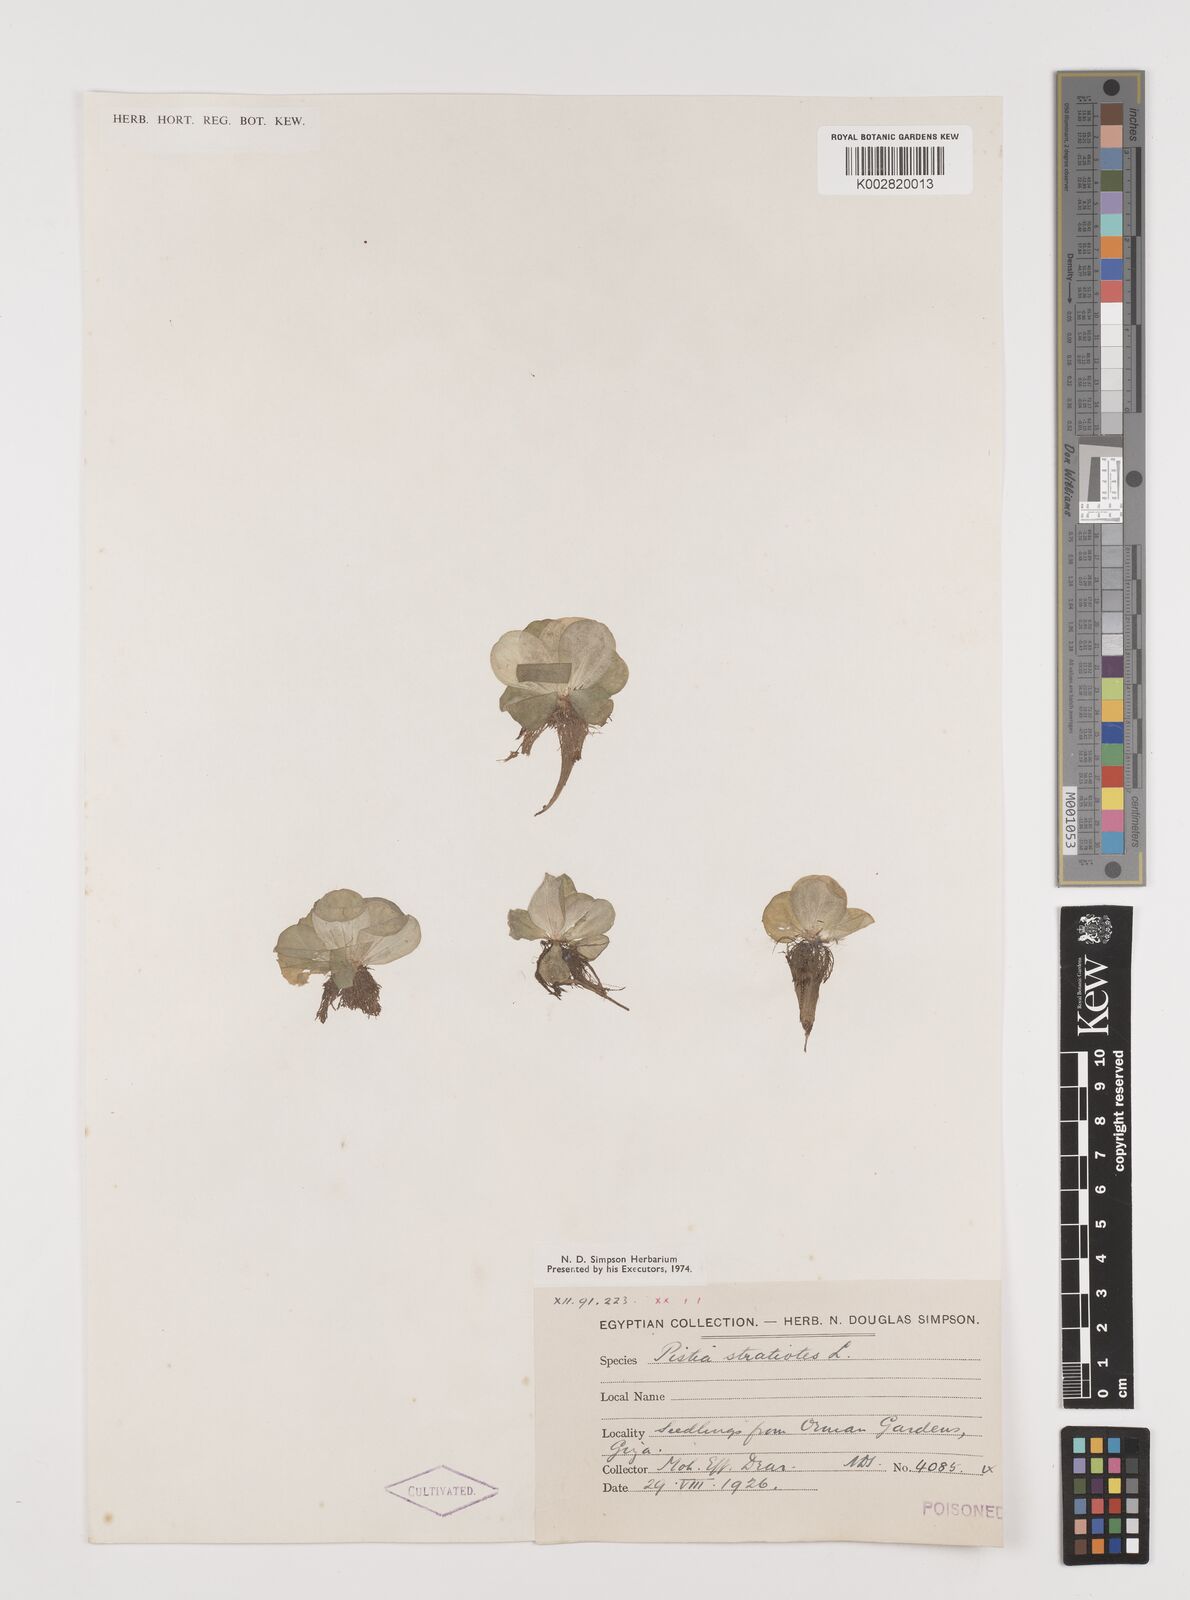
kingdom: Plantae
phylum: Tracheophyta
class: Liliopsida
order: Alismatales
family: Araceae
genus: Pistia
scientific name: Pistia stratiotes
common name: Water lettuce
